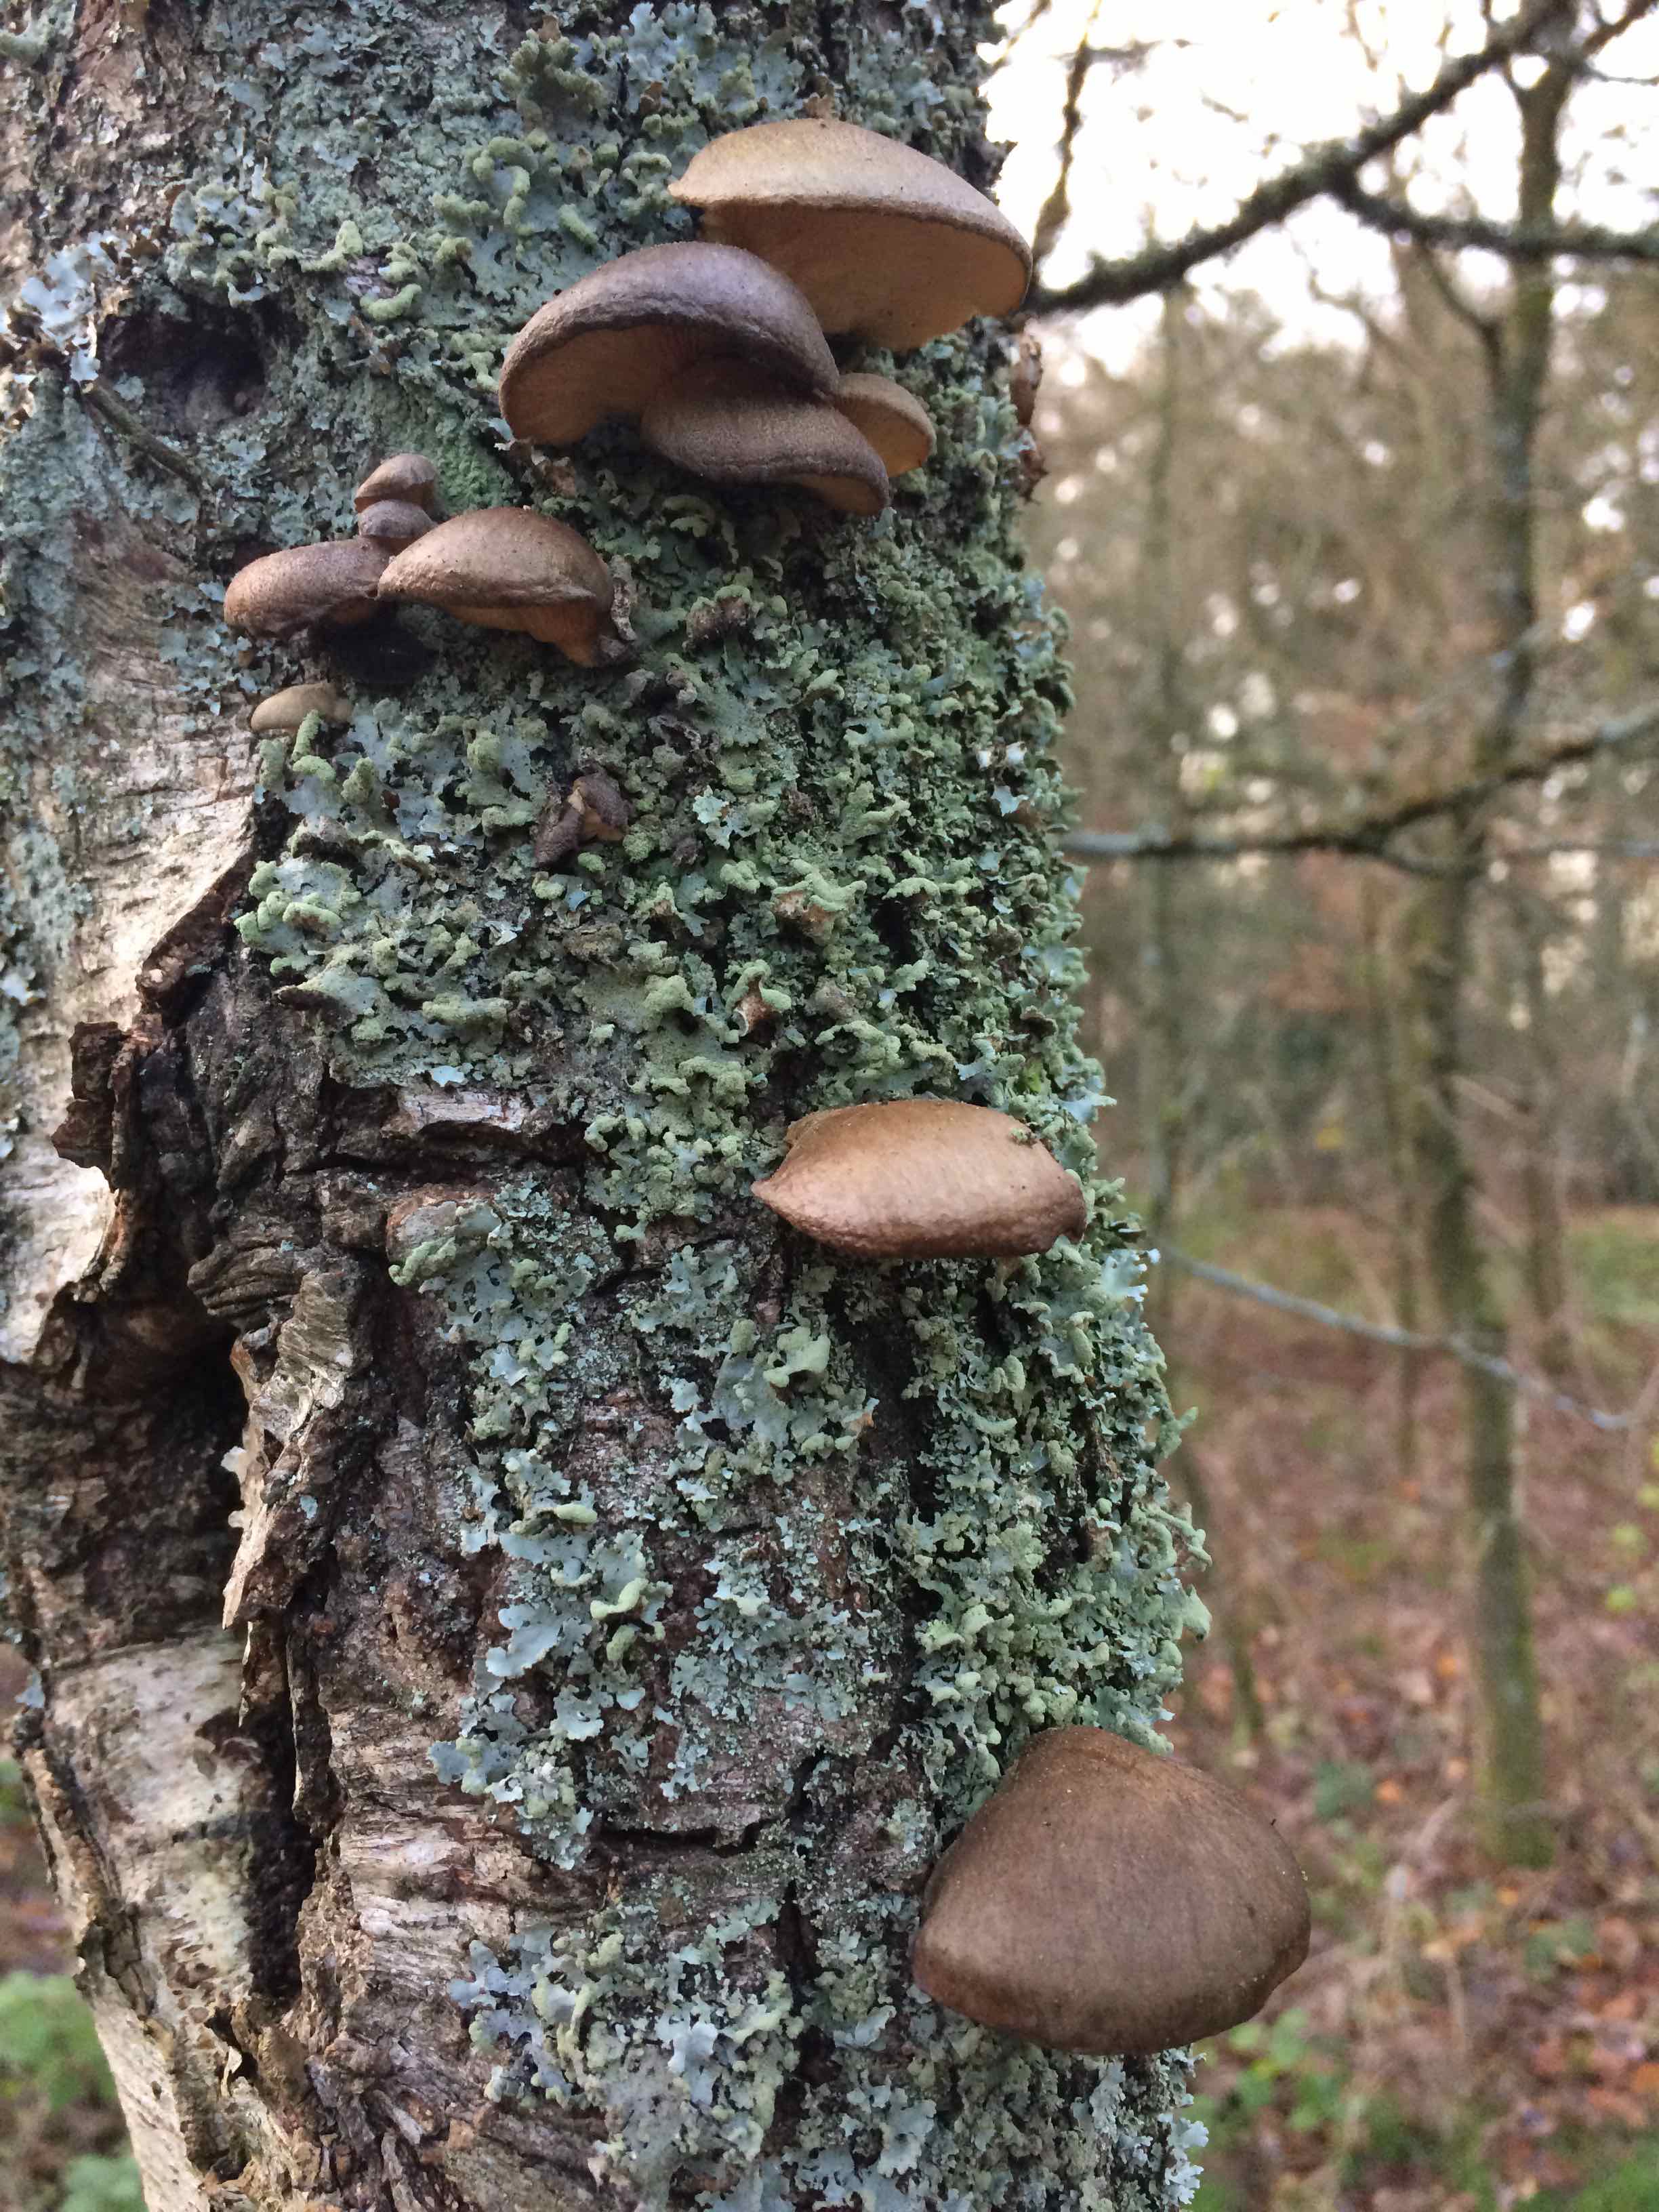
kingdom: Fungi
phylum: Basidiomycota
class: Agaricomycetes
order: Agaricales
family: Sarcomyxaceae
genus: Sarcomyxa
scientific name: Sarcomyxa serotina
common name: gummihat
